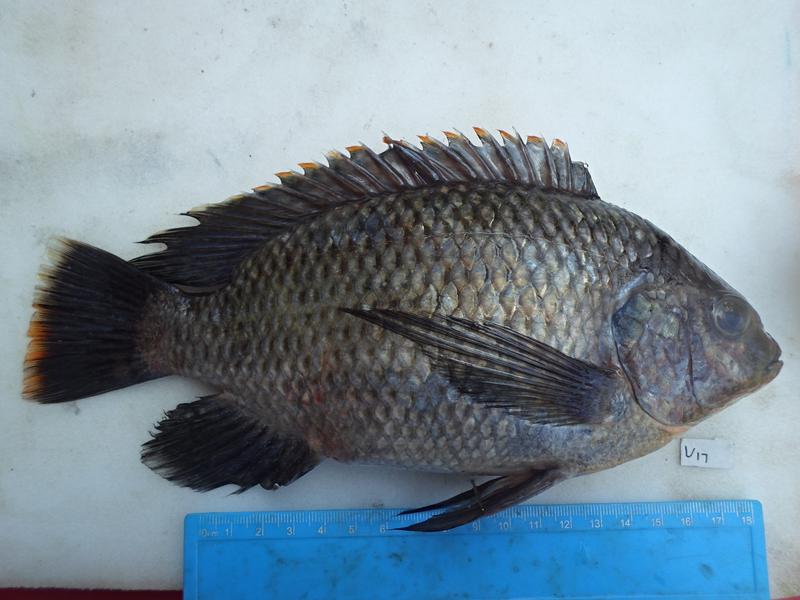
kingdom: Animalia
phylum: Chordata
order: Perciformes
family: Cichlidae
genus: Oreochromis
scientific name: Oreochromis variabilis
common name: Victoria tilapia
